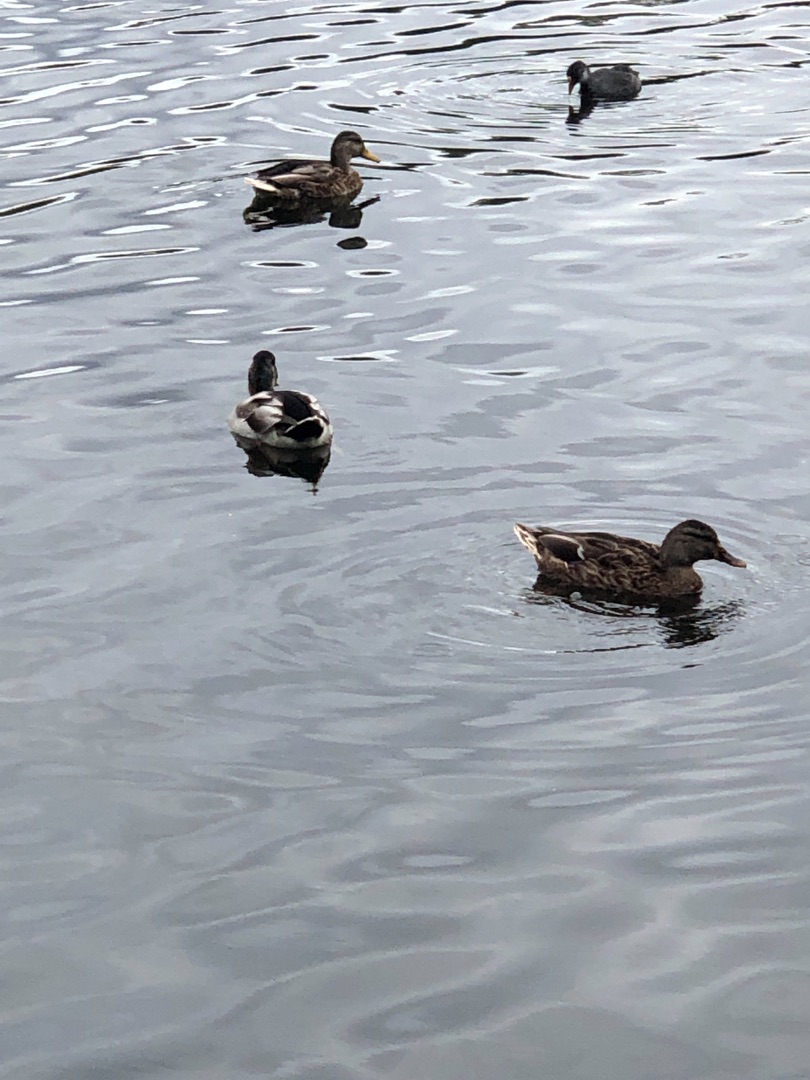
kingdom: Animalia
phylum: Chordata
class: Aves
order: Anseriformes
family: Anatidae
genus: Anas
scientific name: Anas platyrhynchos
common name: Gråand
